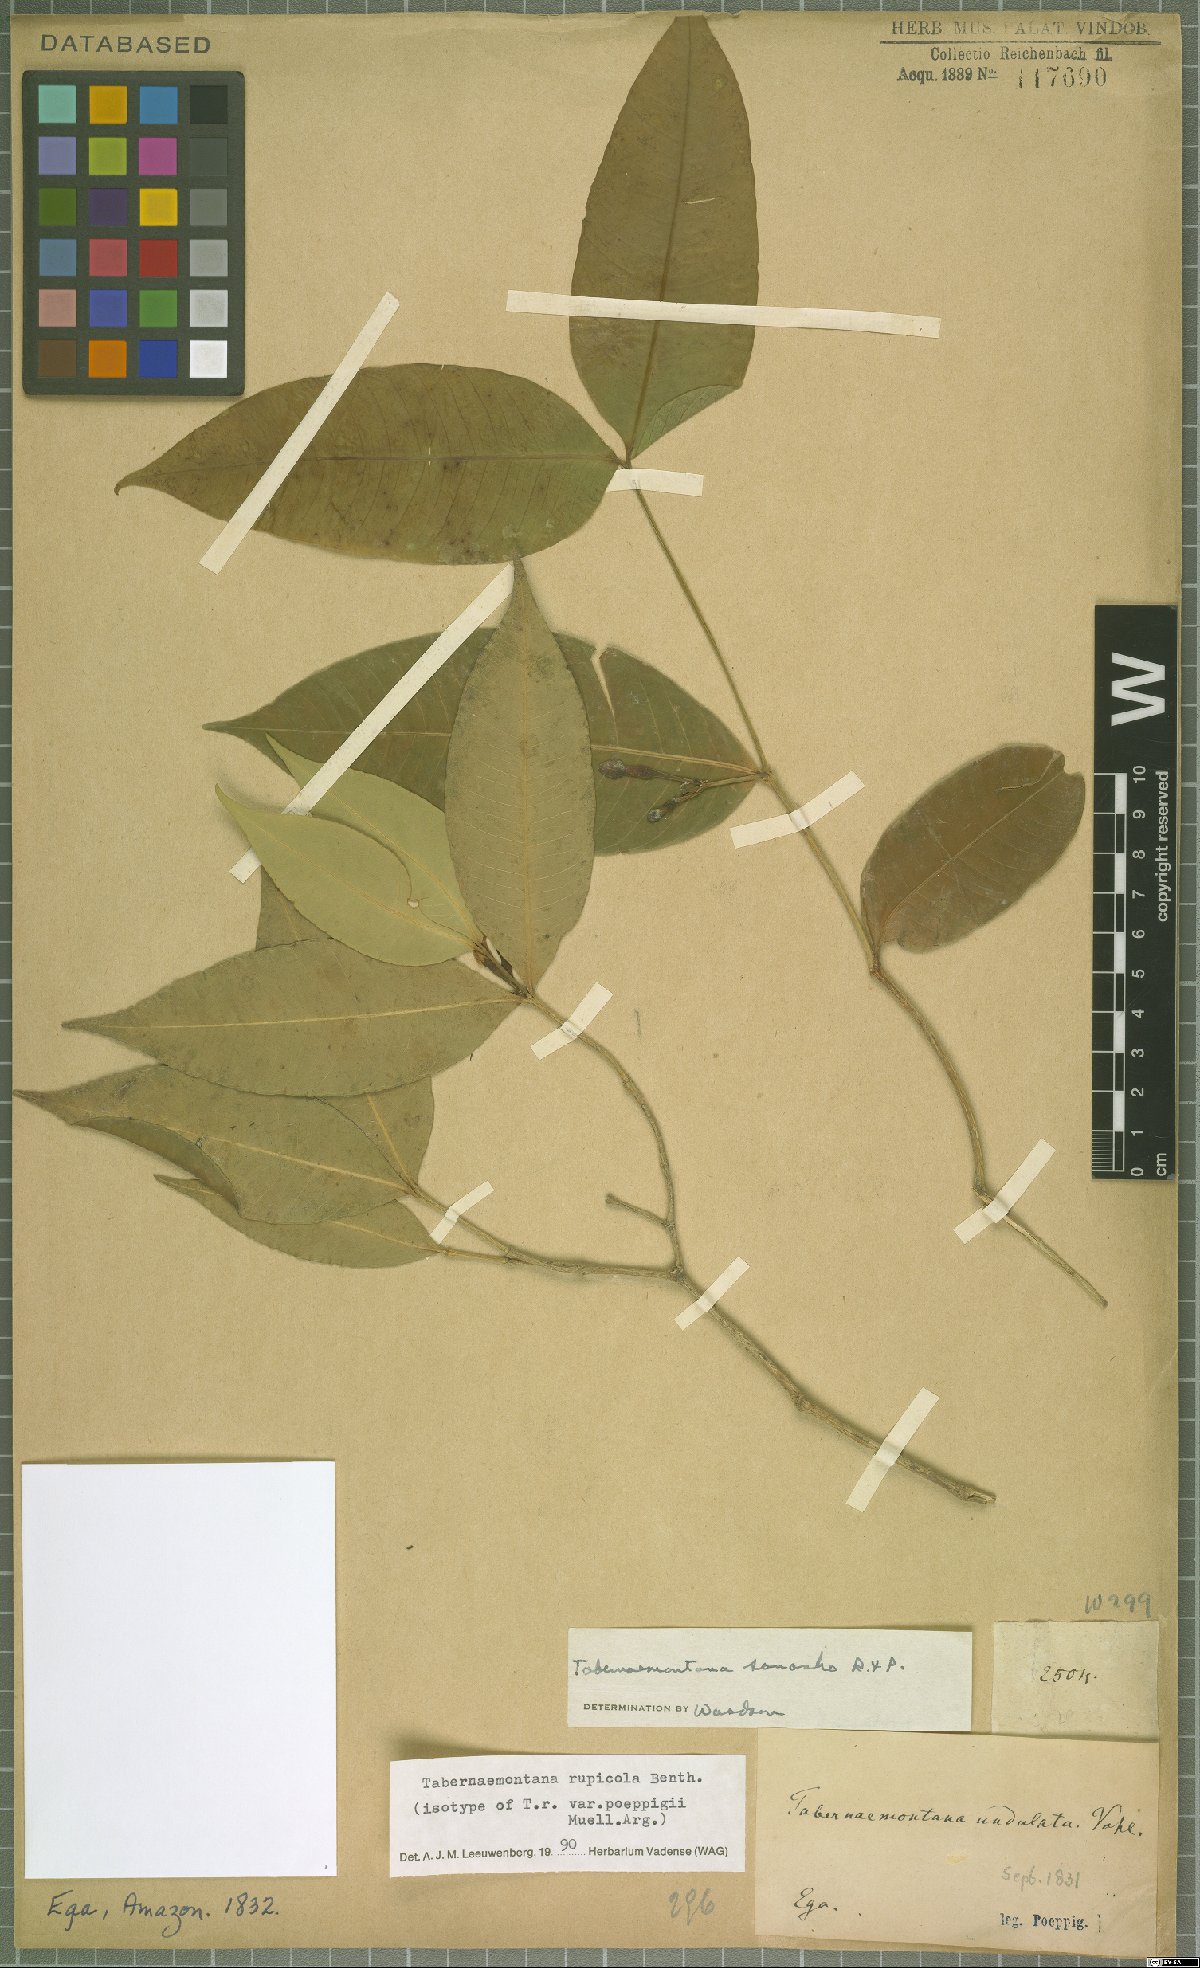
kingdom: Plantae
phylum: Tracheophyta
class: Magnoliopsida
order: Gentianales
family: Apocynaceae
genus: Tabernaemontana
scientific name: Tabernaemontana rupicola
